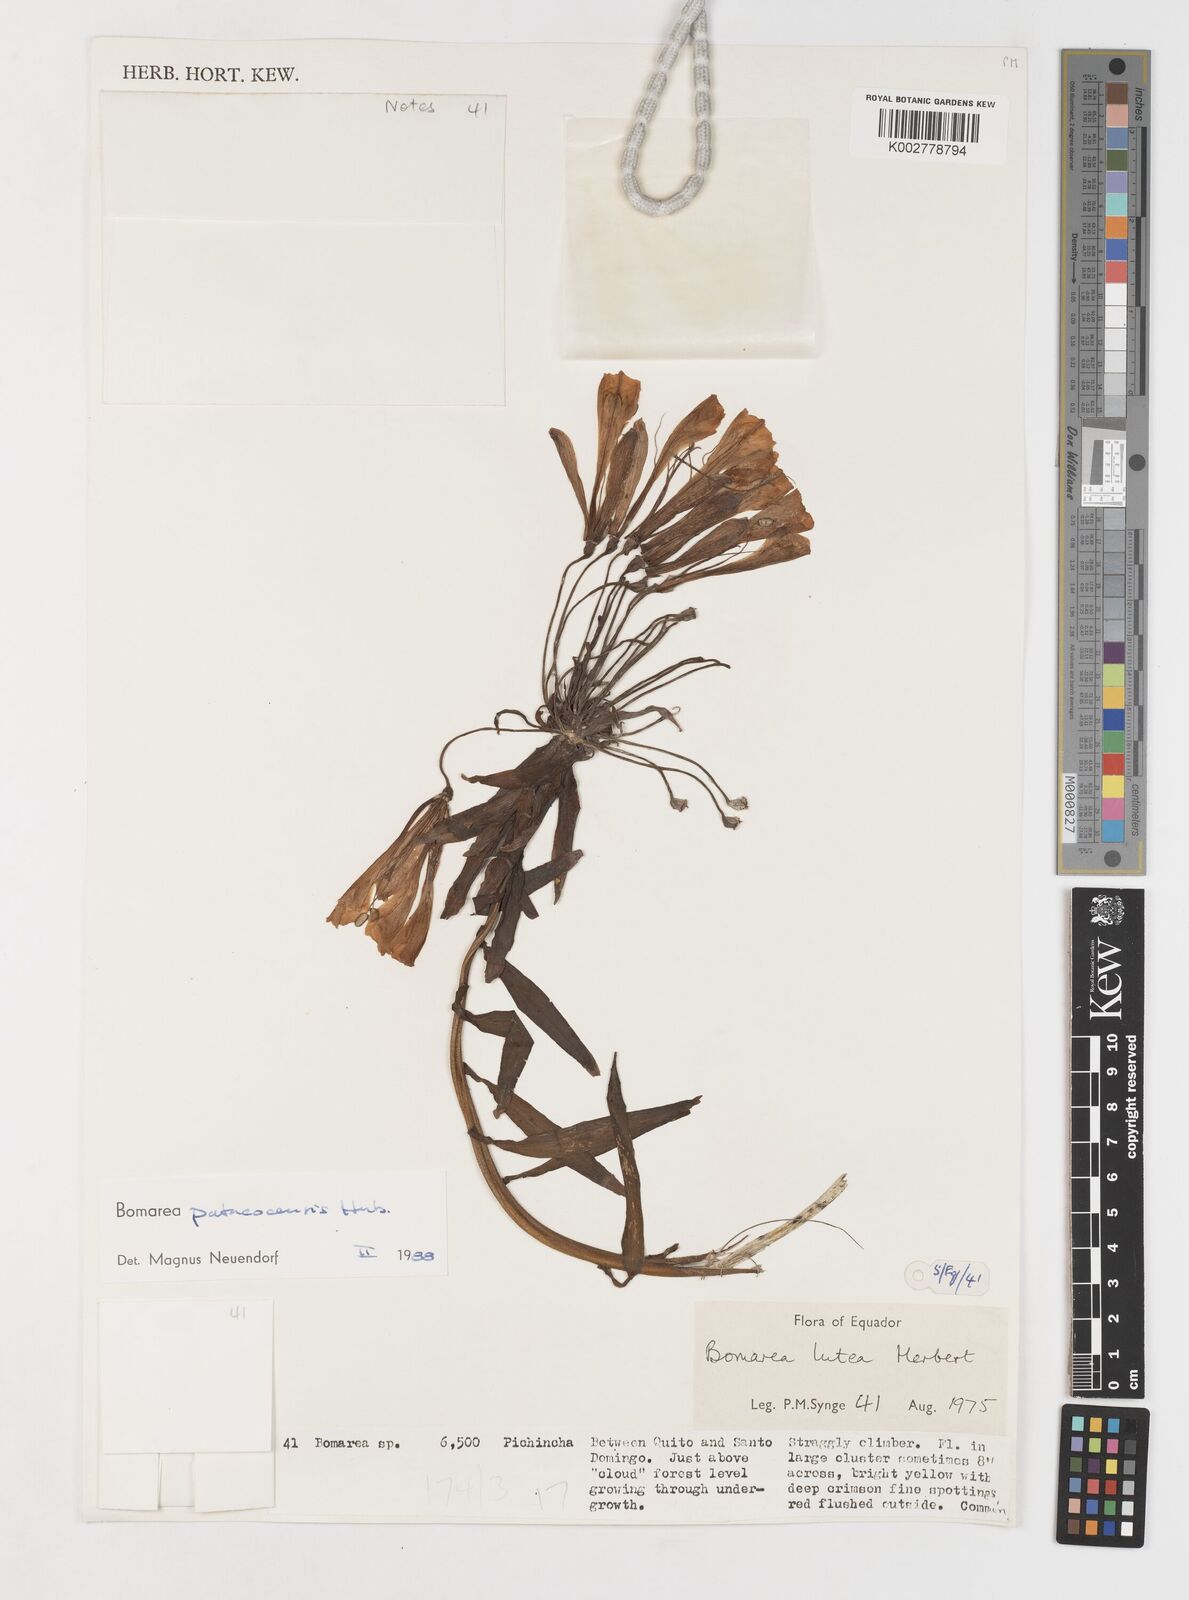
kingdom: Plantae
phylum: Tracheophyta
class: Liliopsida
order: Liliales
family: Alstroemeriaceae
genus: Bomarea
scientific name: Bomarea patacocensis
